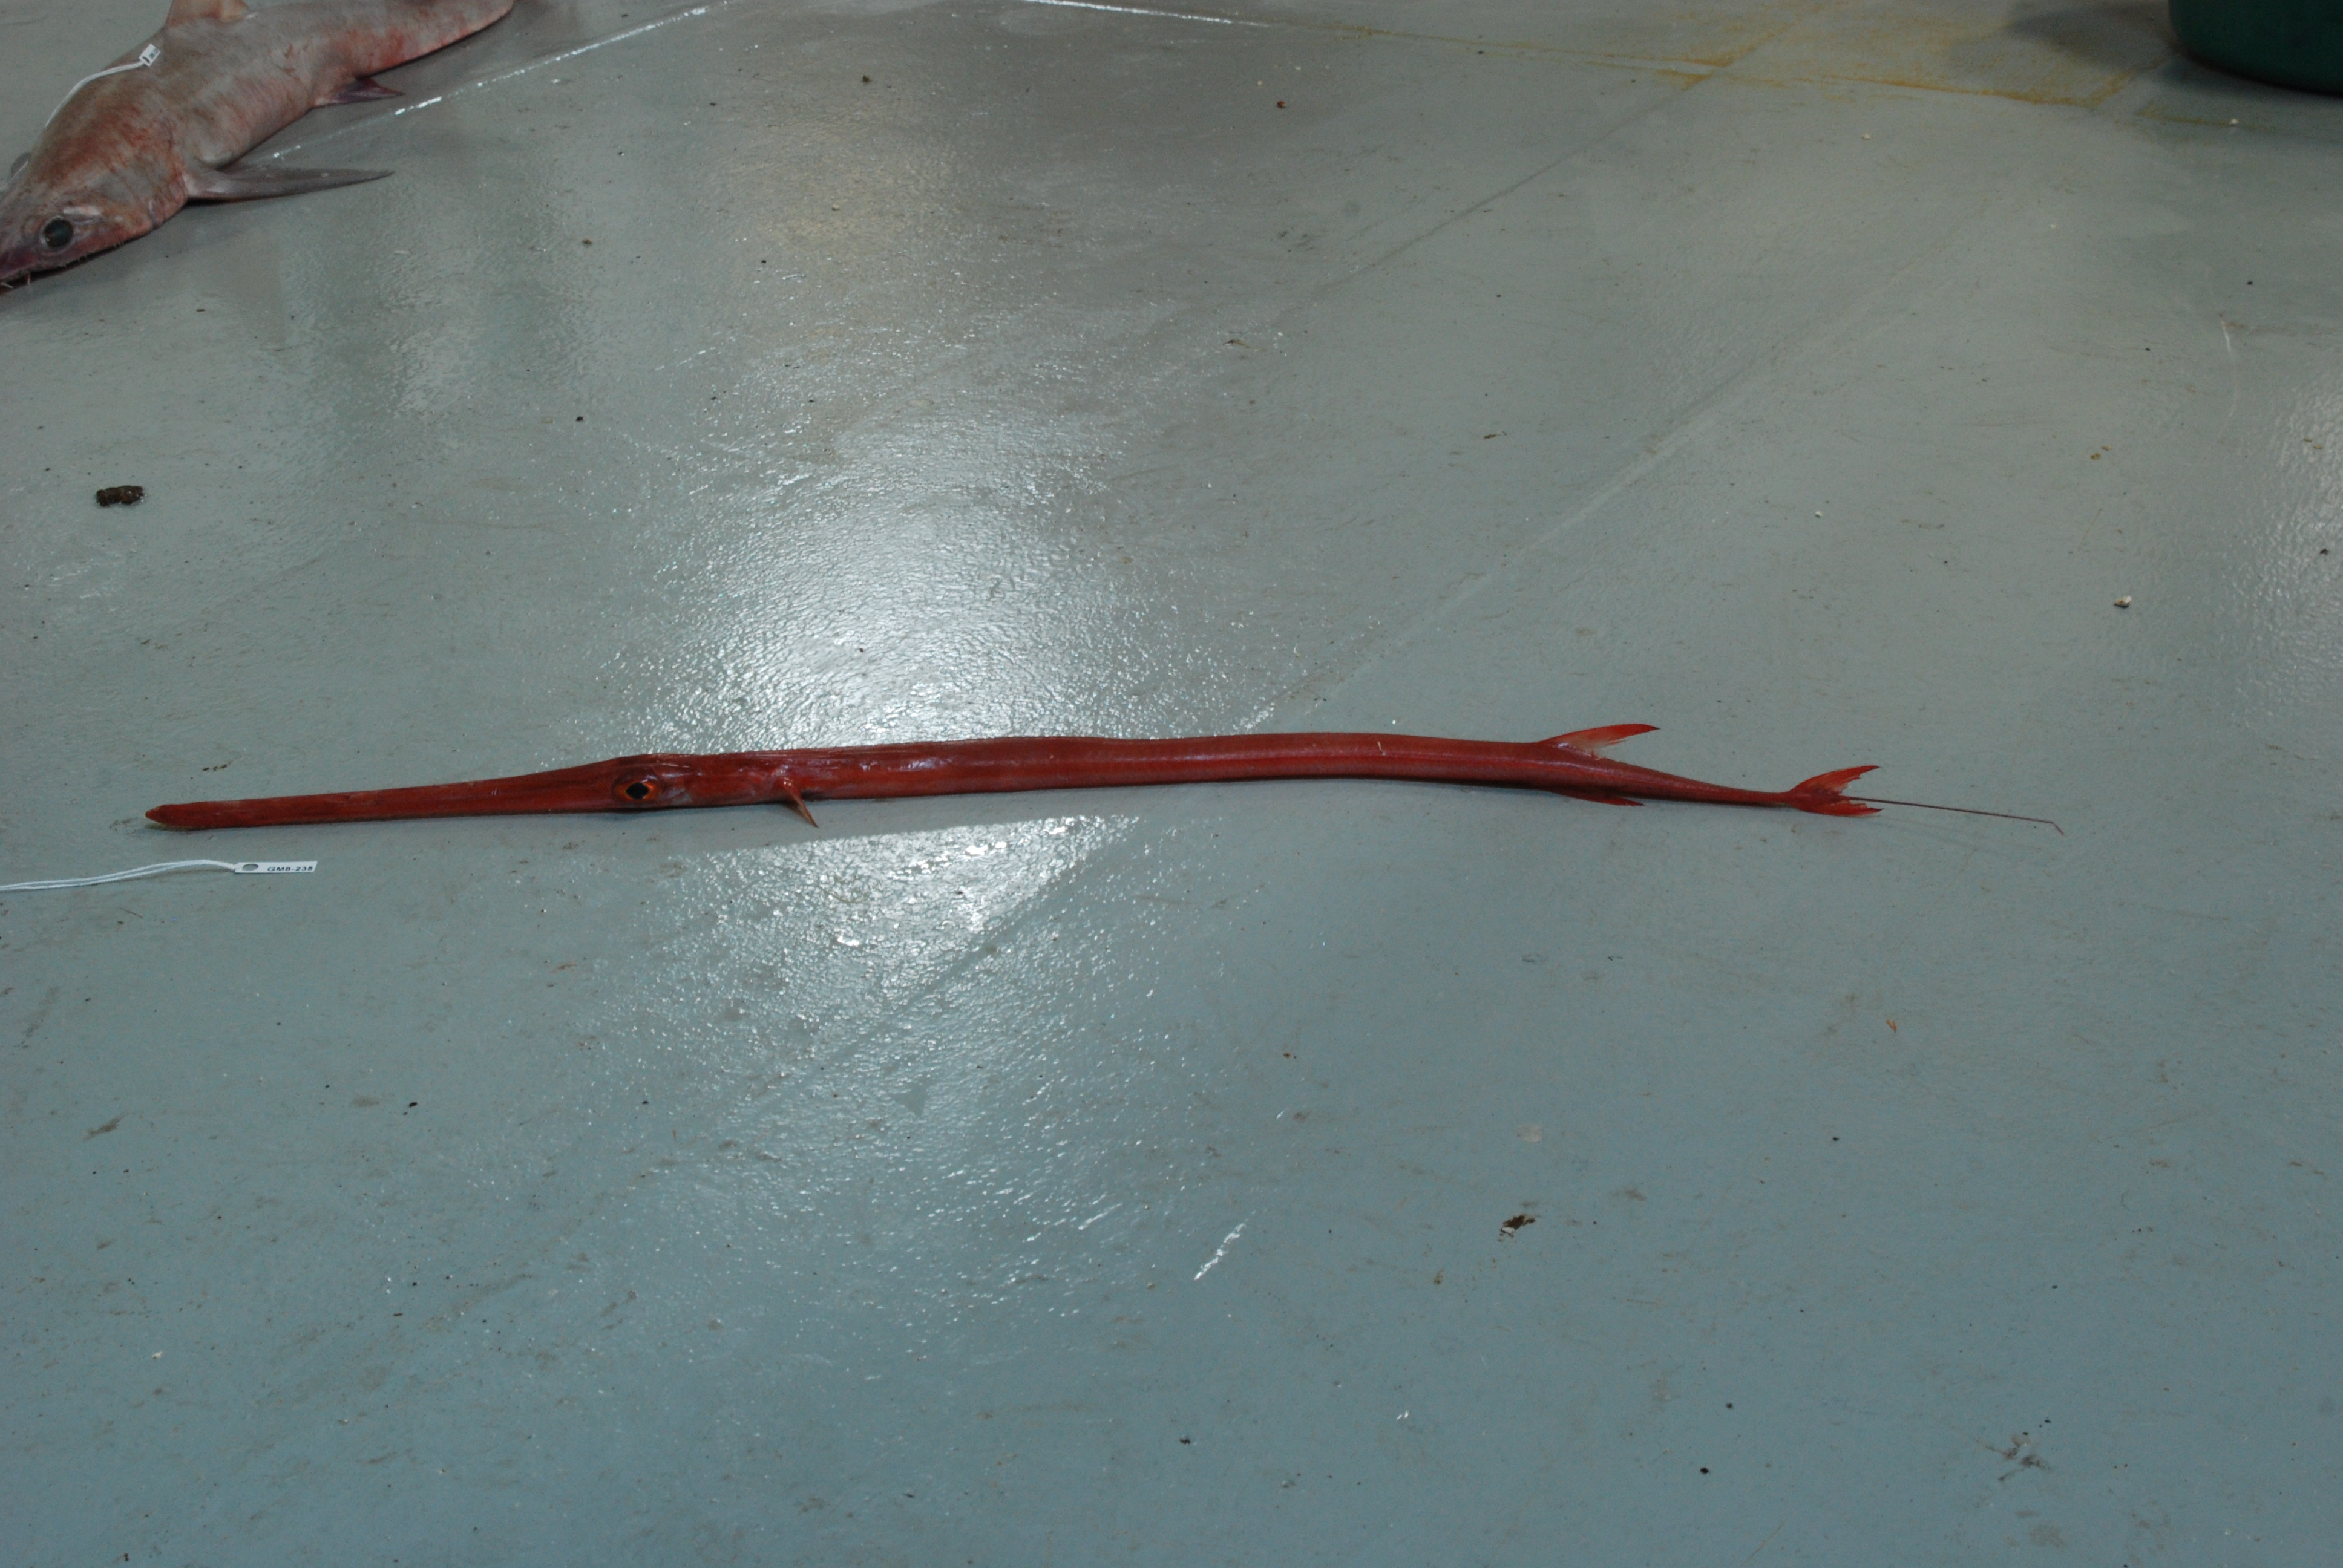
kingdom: Animalia
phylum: Chordata
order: Syngnathiformes
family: Fistulariidae
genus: Fistularia
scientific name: Fistularia petimba
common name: Red cornetfish
